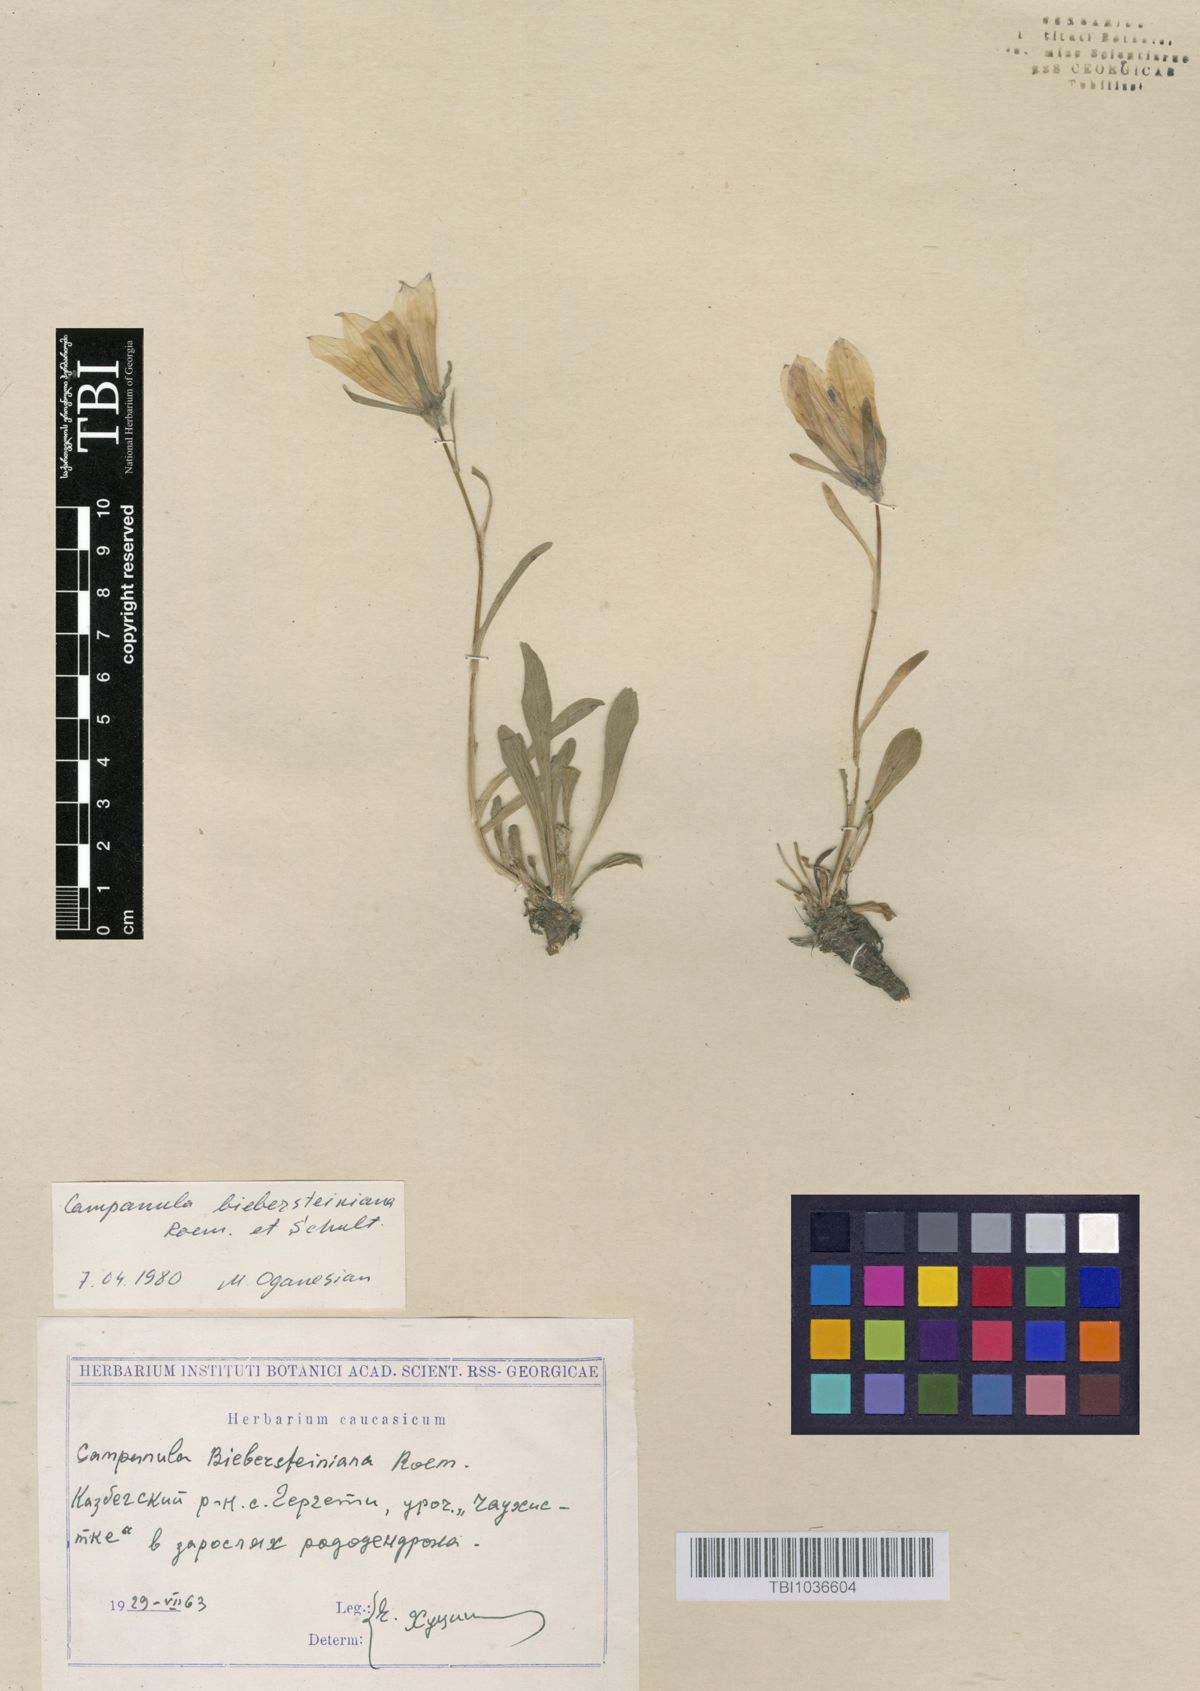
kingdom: Plantae
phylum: Tracheophyta
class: Magnoliopsida
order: Asterales
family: Campanulaceae
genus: Campanula
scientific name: Campanula tridentata
